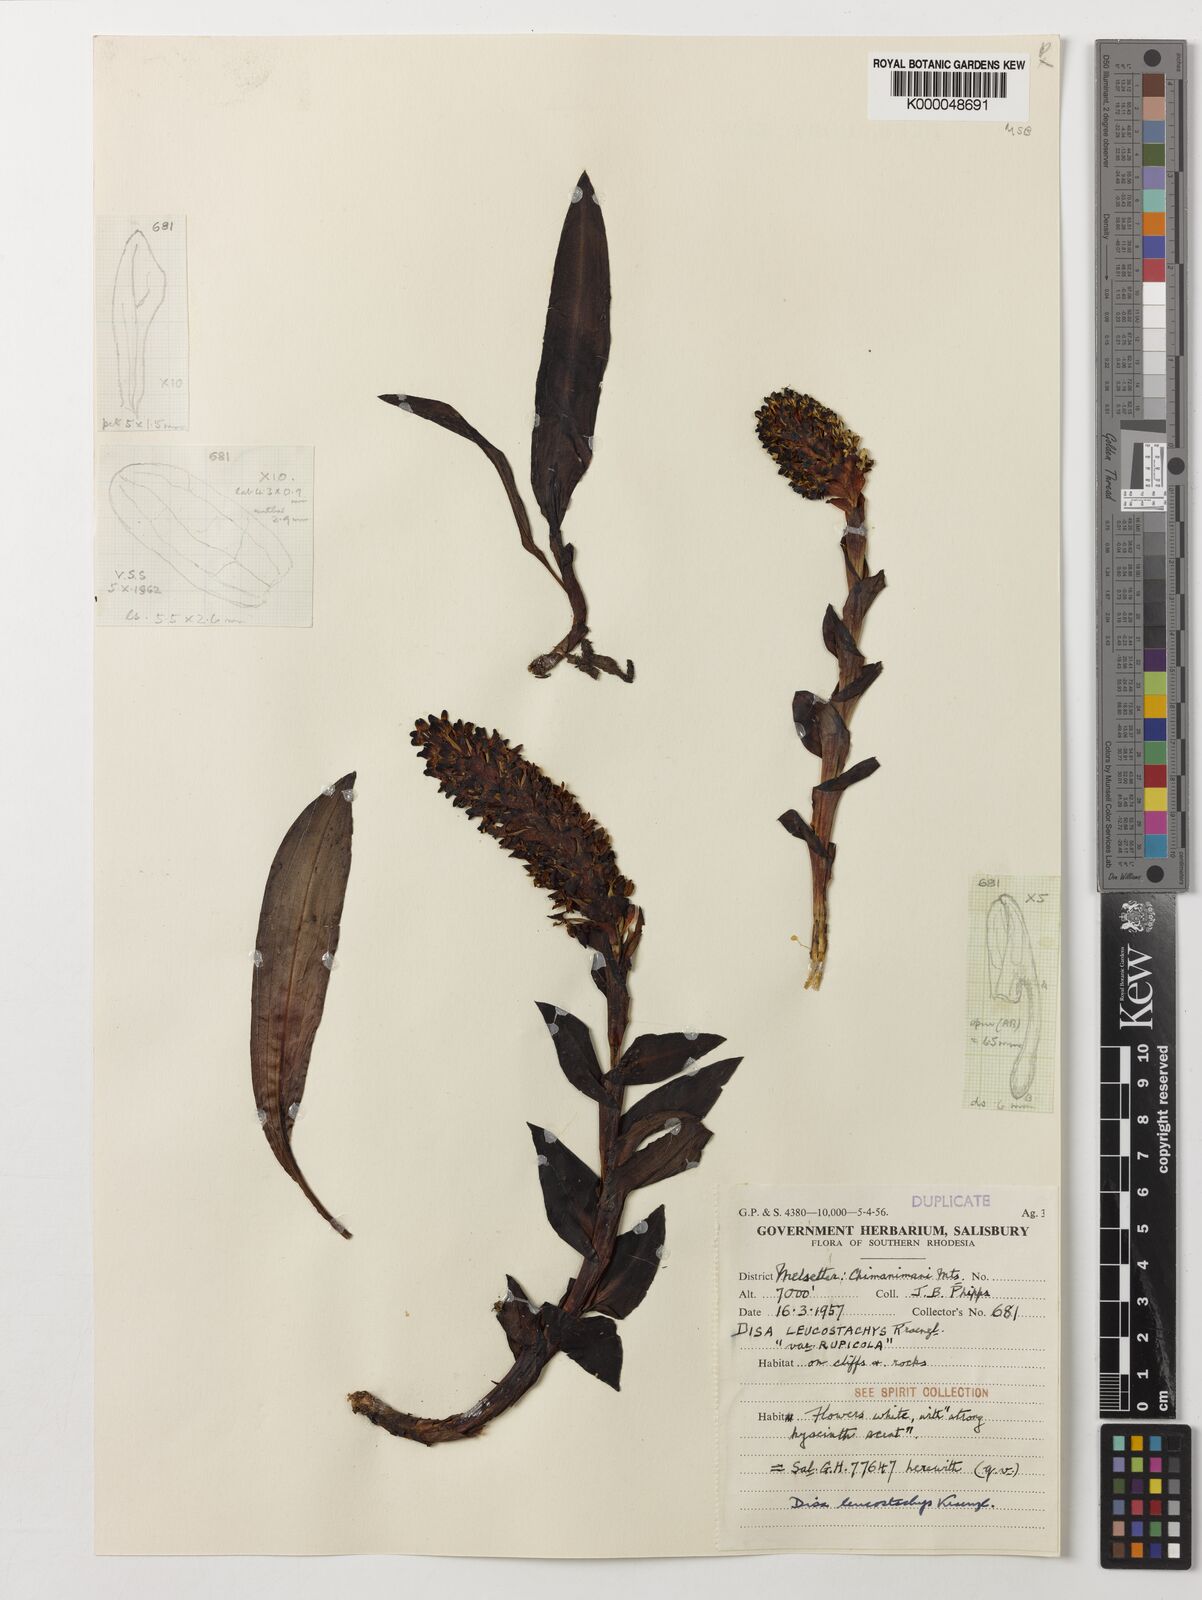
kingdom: Plantae
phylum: Tracheophyta
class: Liliopsida
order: Asparagales
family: Orchidaceae
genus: Disa
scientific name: Disa fragrans
